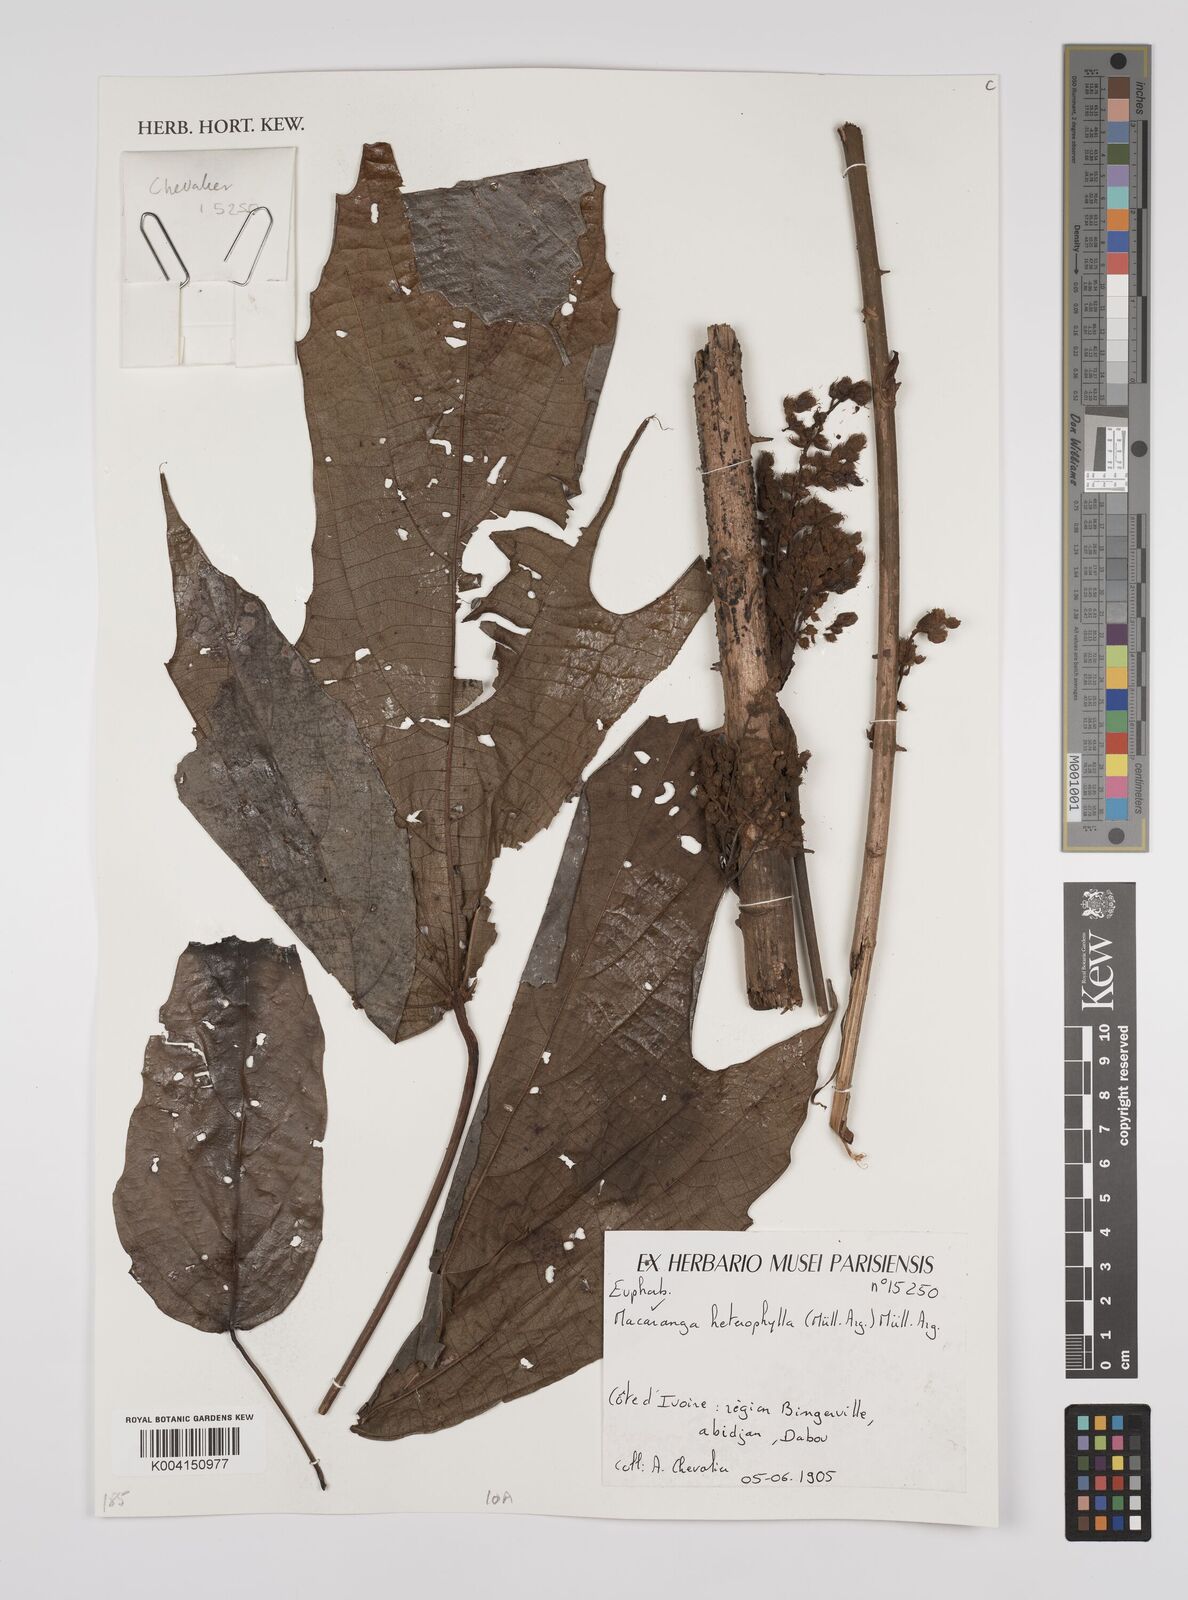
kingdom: Plantae
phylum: Tracheophyta
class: Magnoliopsida
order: Malpighiales
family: Euphorbiaceae
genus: Macaranga
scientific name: Macaranga heterophylla
